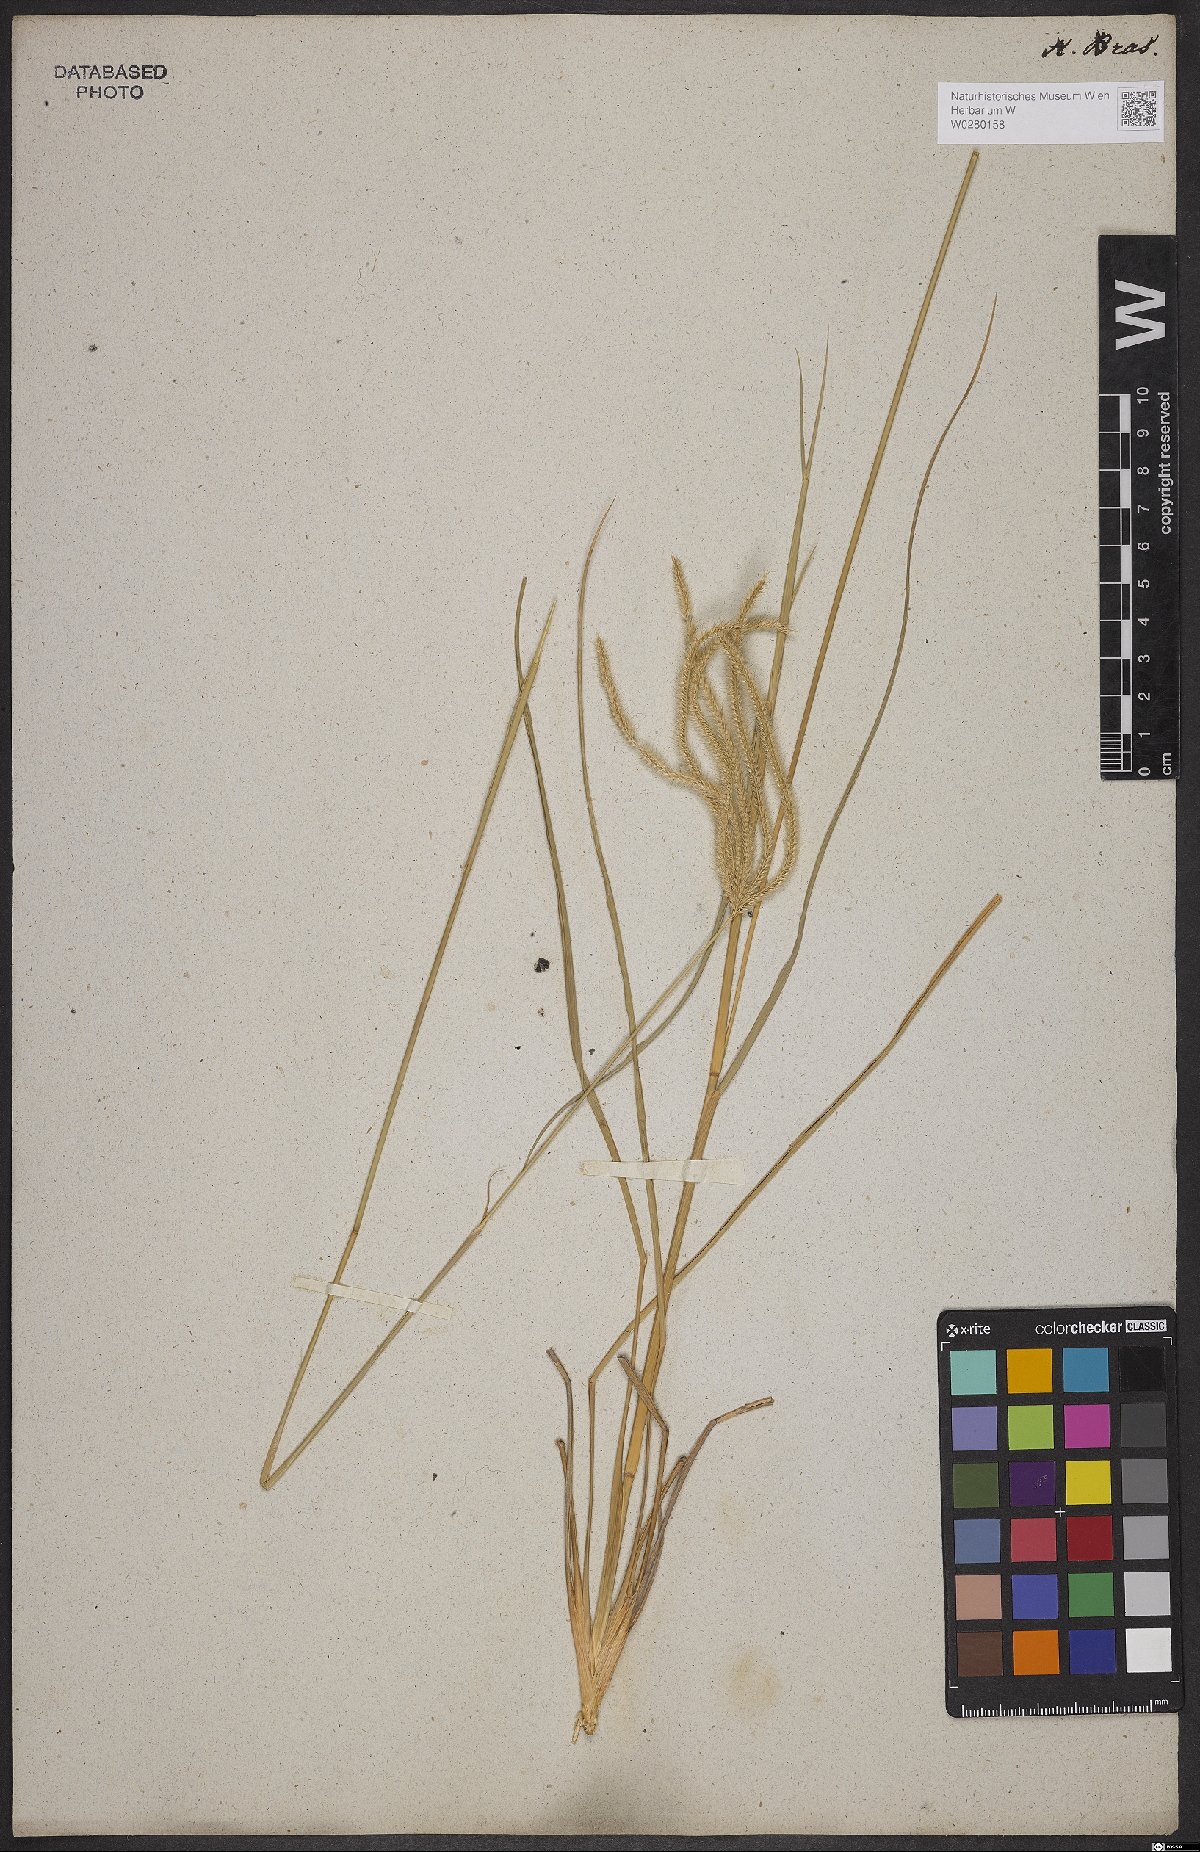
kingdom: Plantae
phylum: Tracheophyta
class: Liliopsida
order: Poales
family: Poaceae
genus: Stapfochloa
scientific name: Stapfochloa elata
